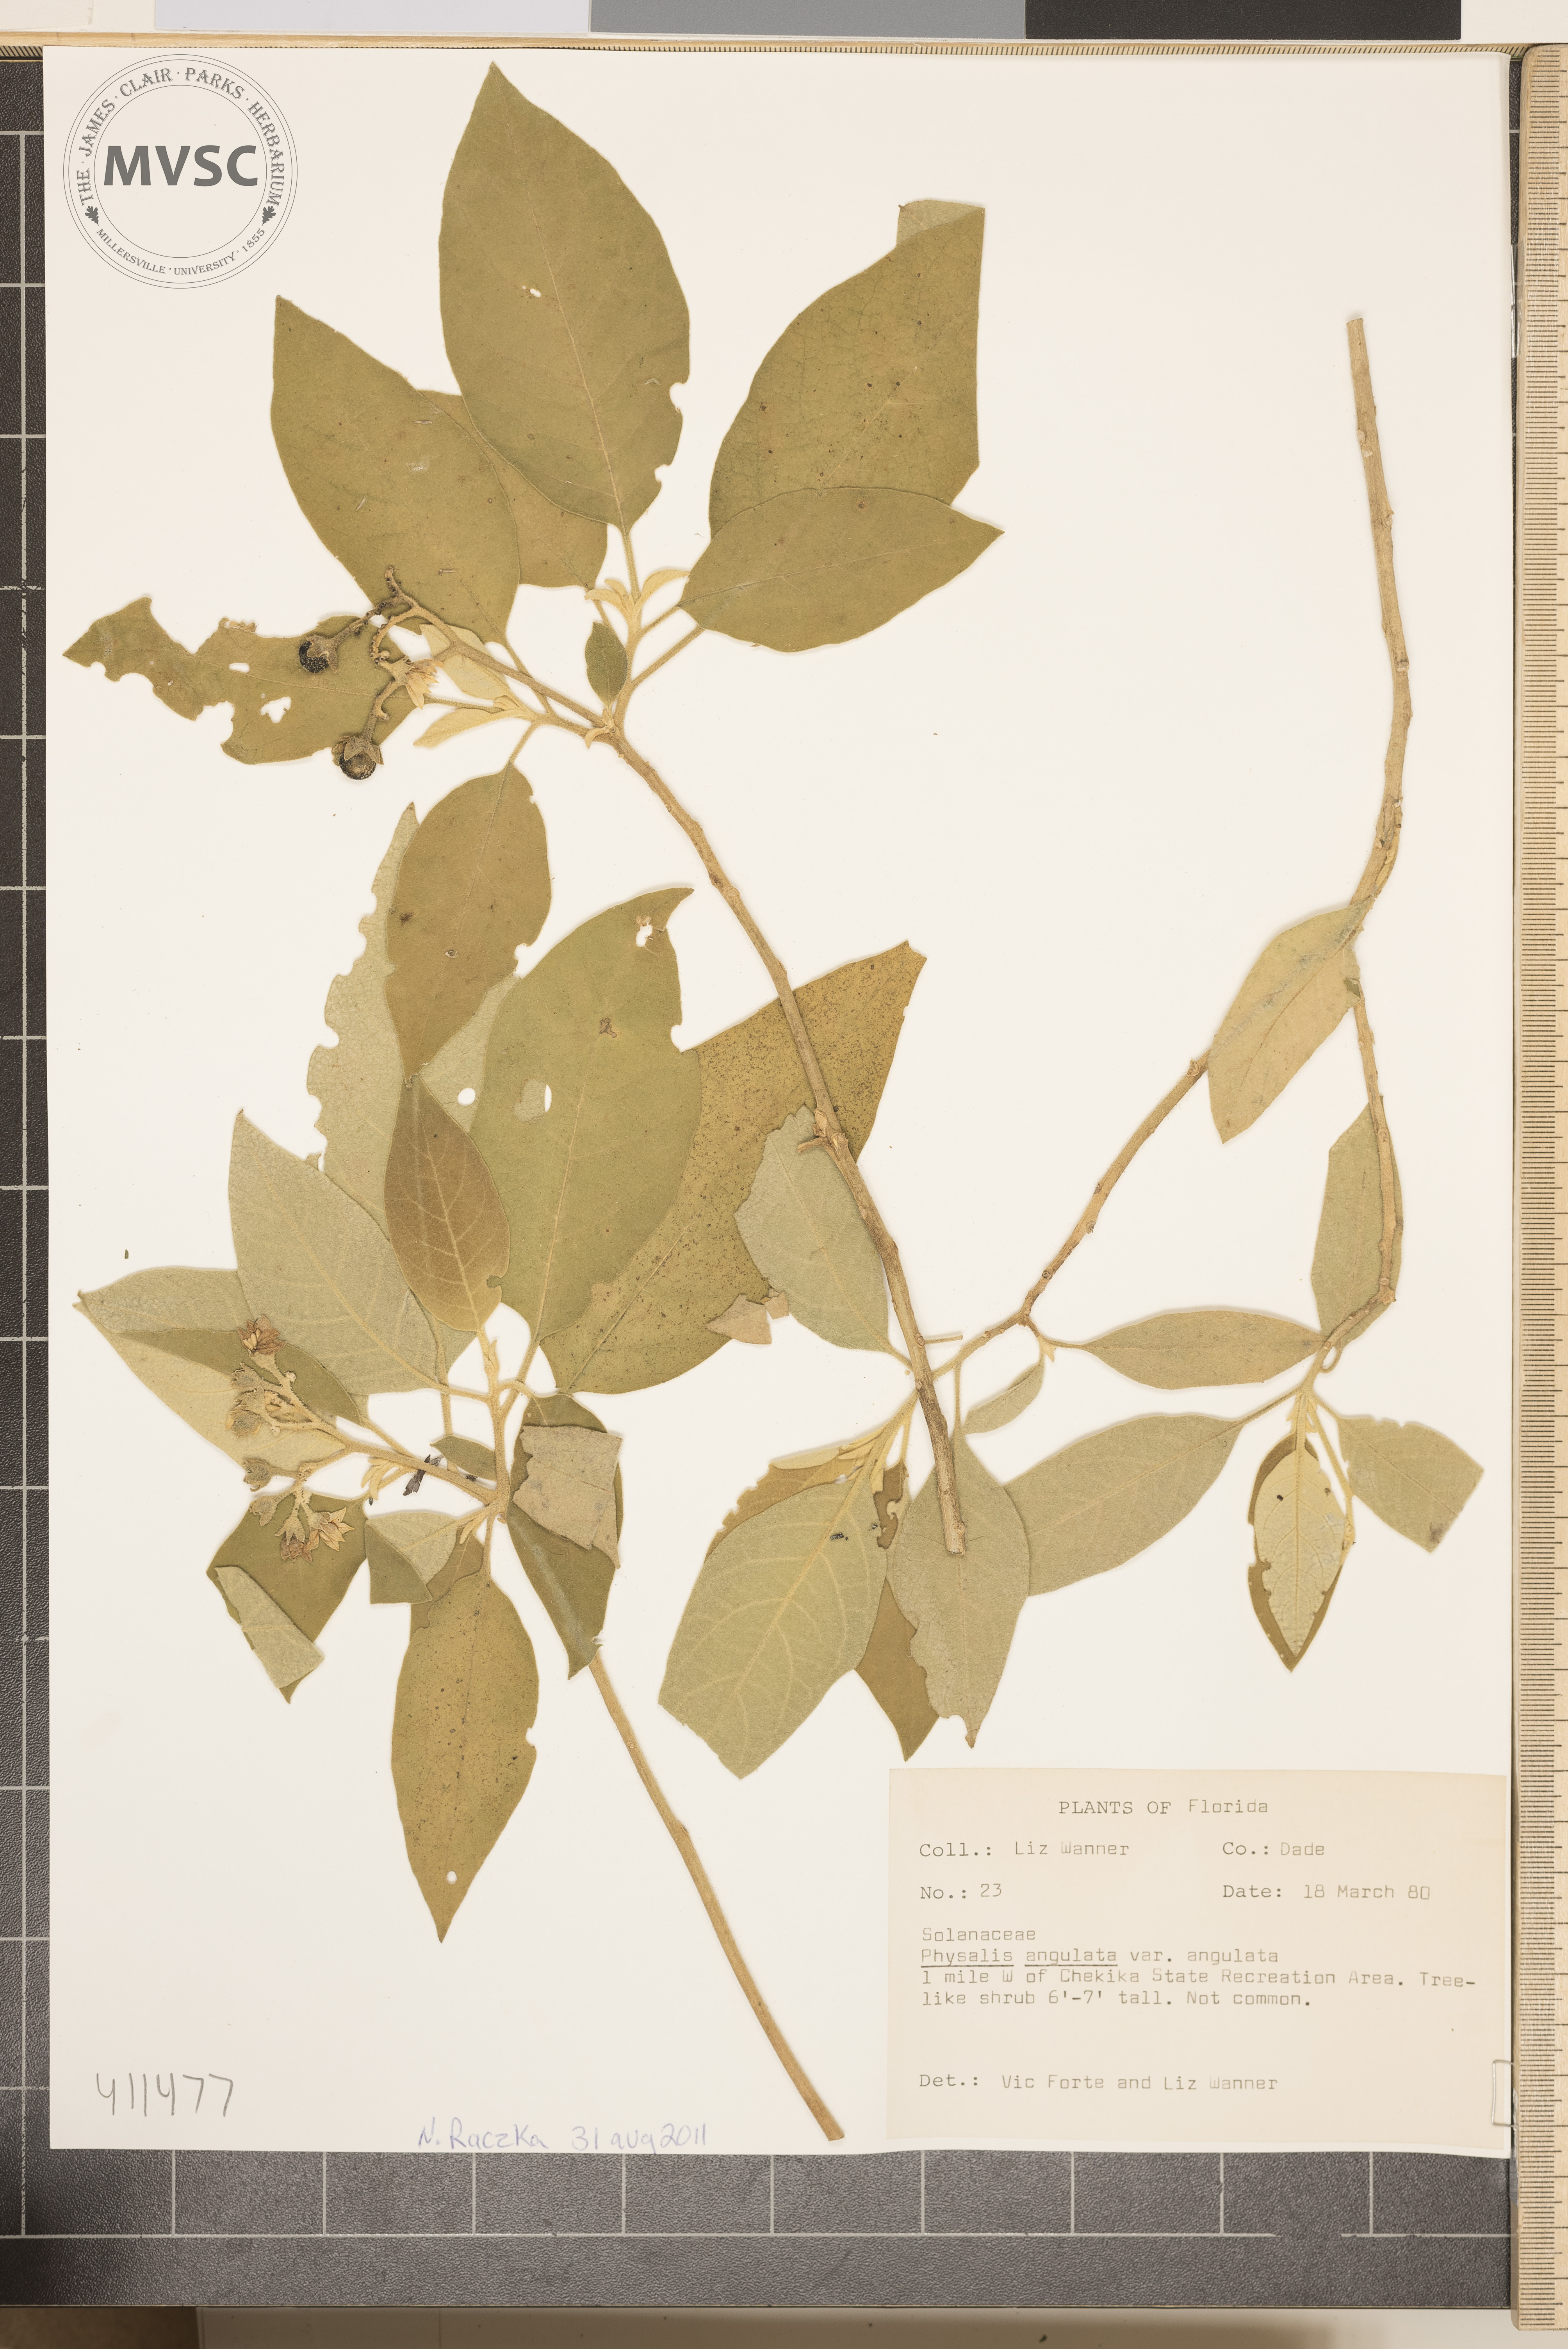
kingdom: Plantae
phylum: Tracheophyta
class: Magnoliopsida
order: Solanales
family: Solanaceae
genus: Physalis
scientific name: Physalis angulata
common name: Angular winter-cherry
